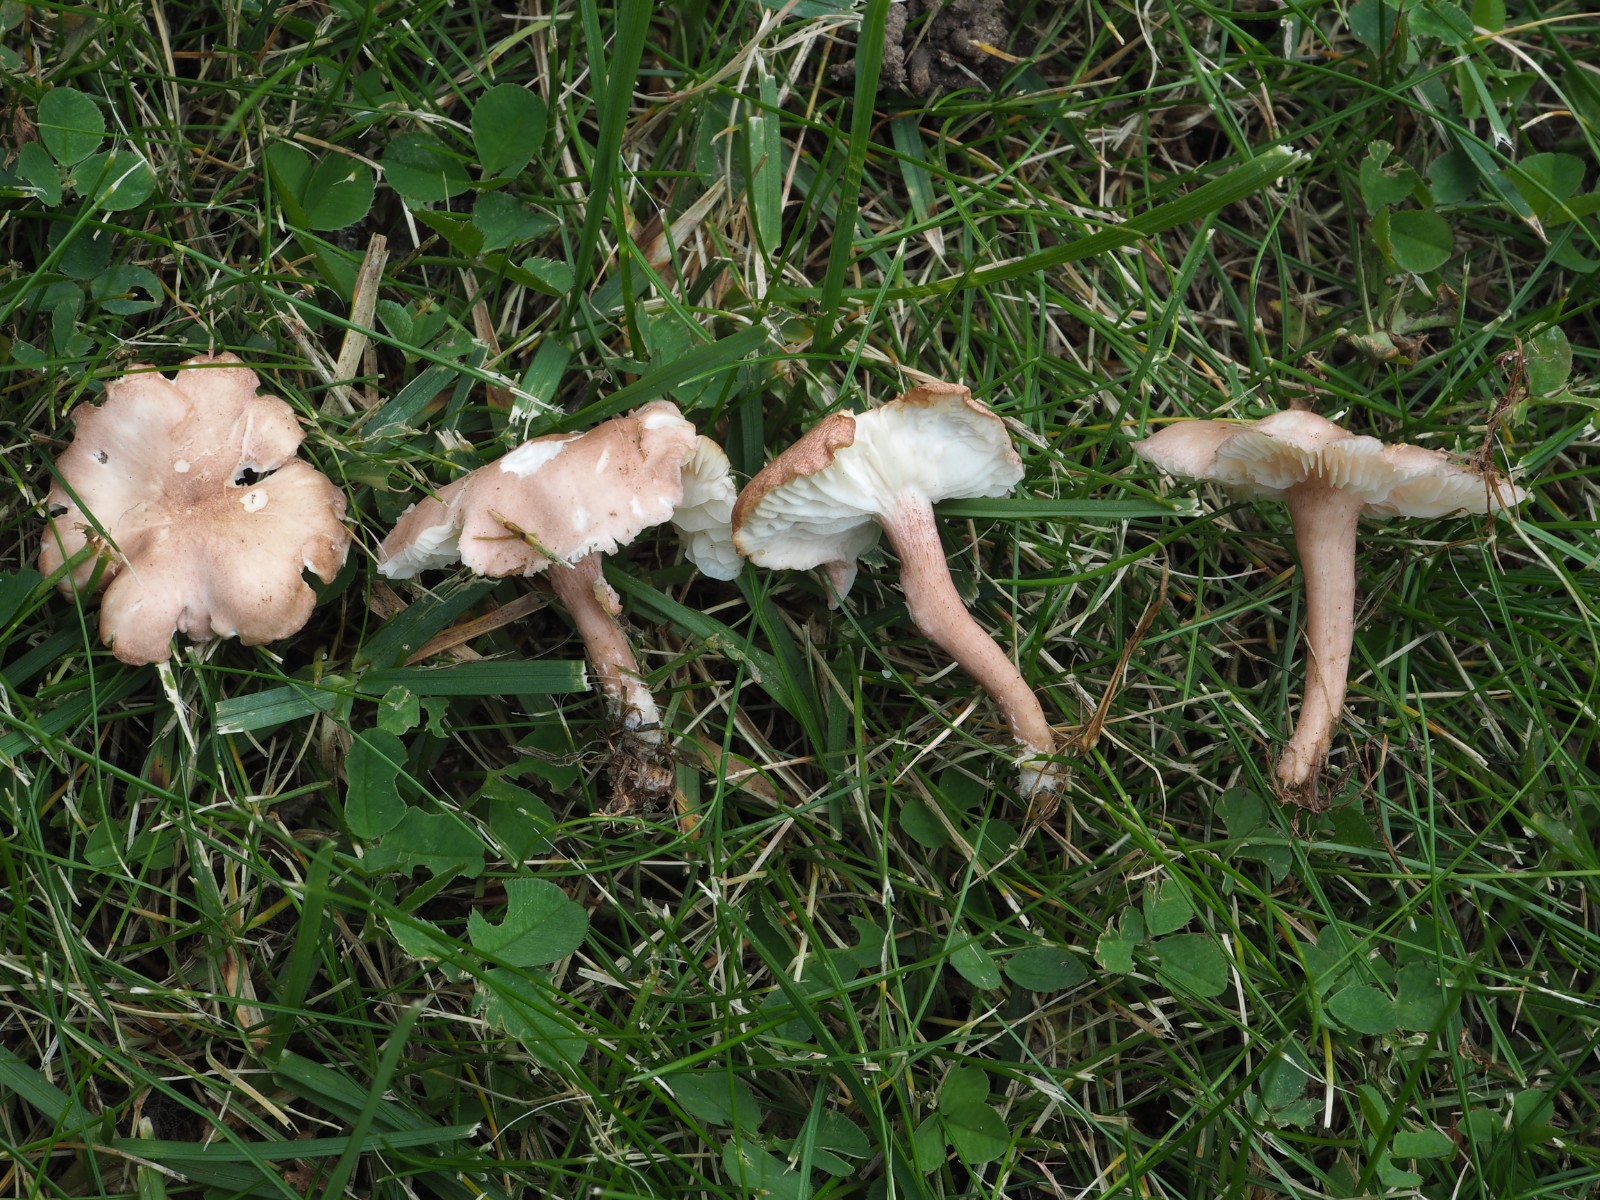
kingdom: Fungi
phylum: Basidiomycota
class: Agaricomycetes
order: Agaricales
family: Lyophyllaceae
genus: Calocybe
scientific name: Calocybe carnea
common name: rosa fagerhat
